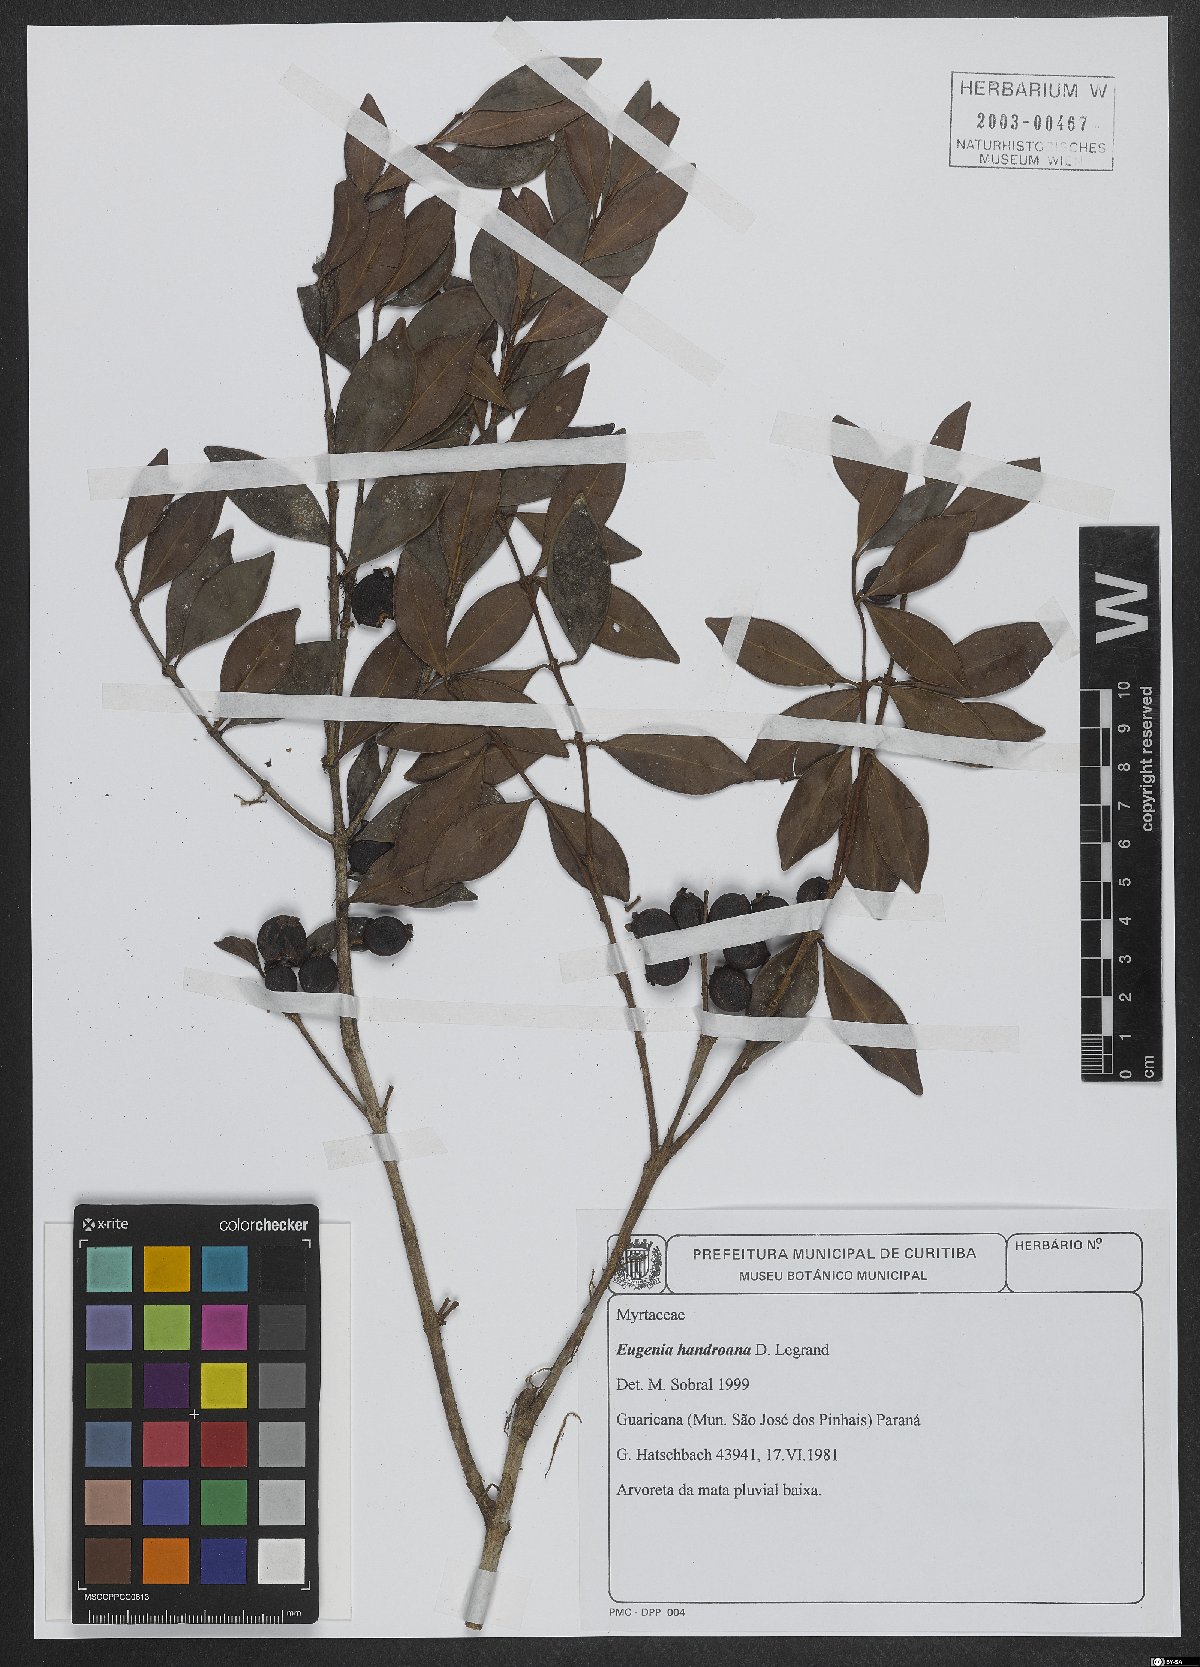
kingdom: Plantae
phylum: Tracheophyta
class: Magnoliopsida
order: Myrtales
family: Myrtaceae
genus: Eugenia
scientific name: Eugenia handroana
